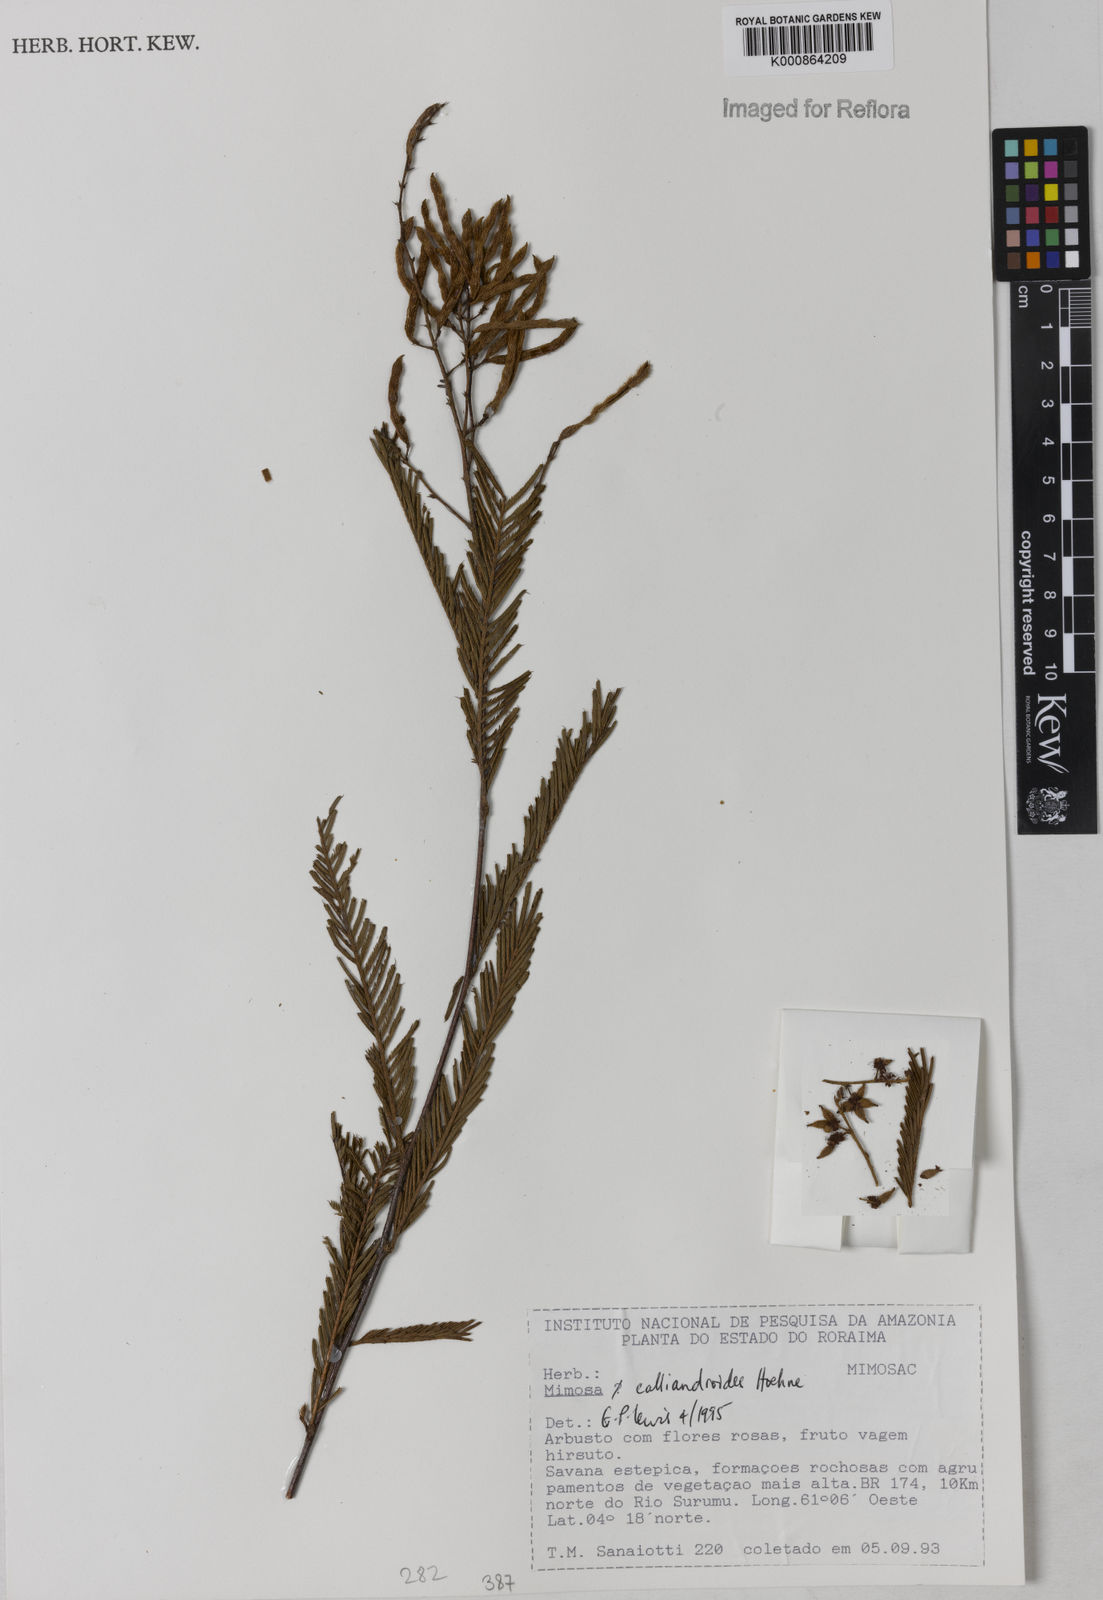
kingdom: Plantae
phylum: Tracheophyta
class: Magnoliopsida
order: Fabales
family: Fabaceae
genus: Mimosa
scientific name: Mimosa calliandroides
